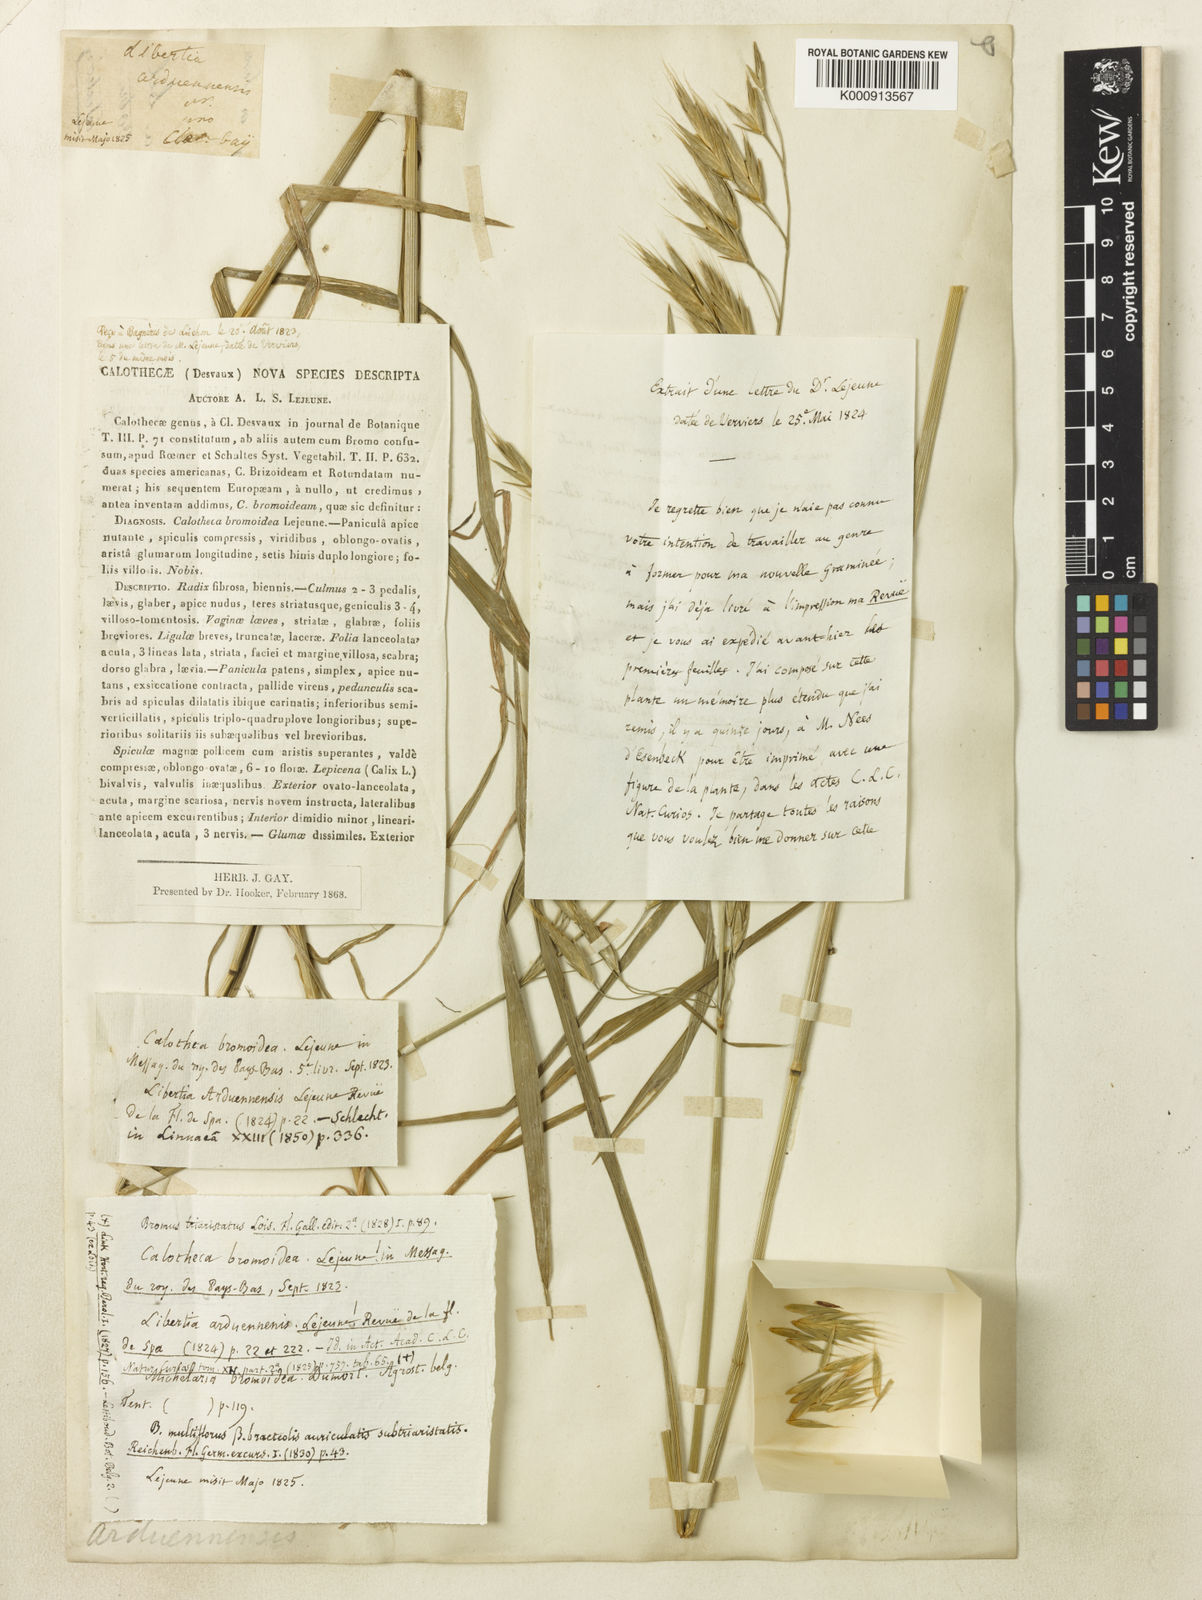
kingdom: Plantae
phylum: Tracheophyta
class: Liliopsida
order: Poales
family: Poaceae
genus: Bromus
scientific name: Bromus
